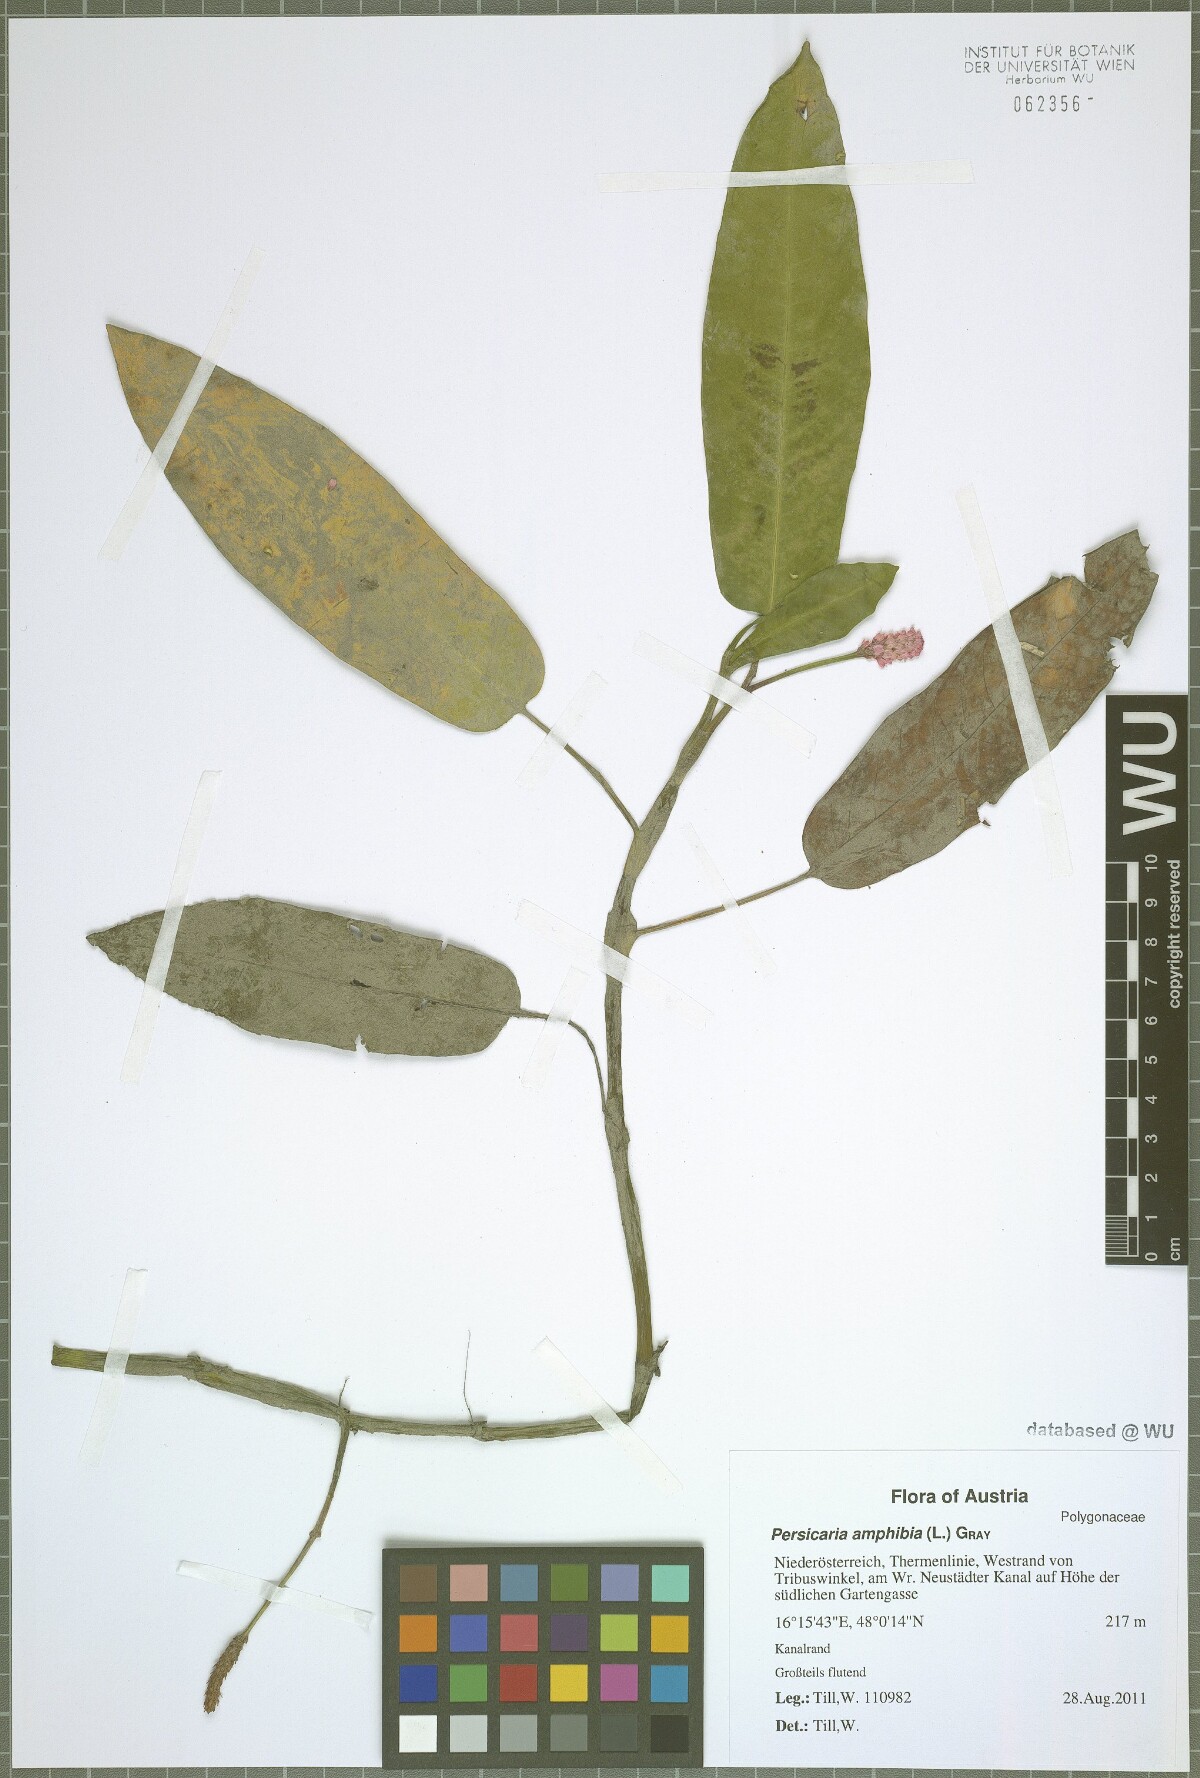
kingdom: Plantae
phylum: Tracheophyta
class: Magnoliopsida
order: Caryophyllales
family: Polygonaceae
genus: Persicaria
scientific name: Persicaria amphibia
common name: Amphibious bistort
